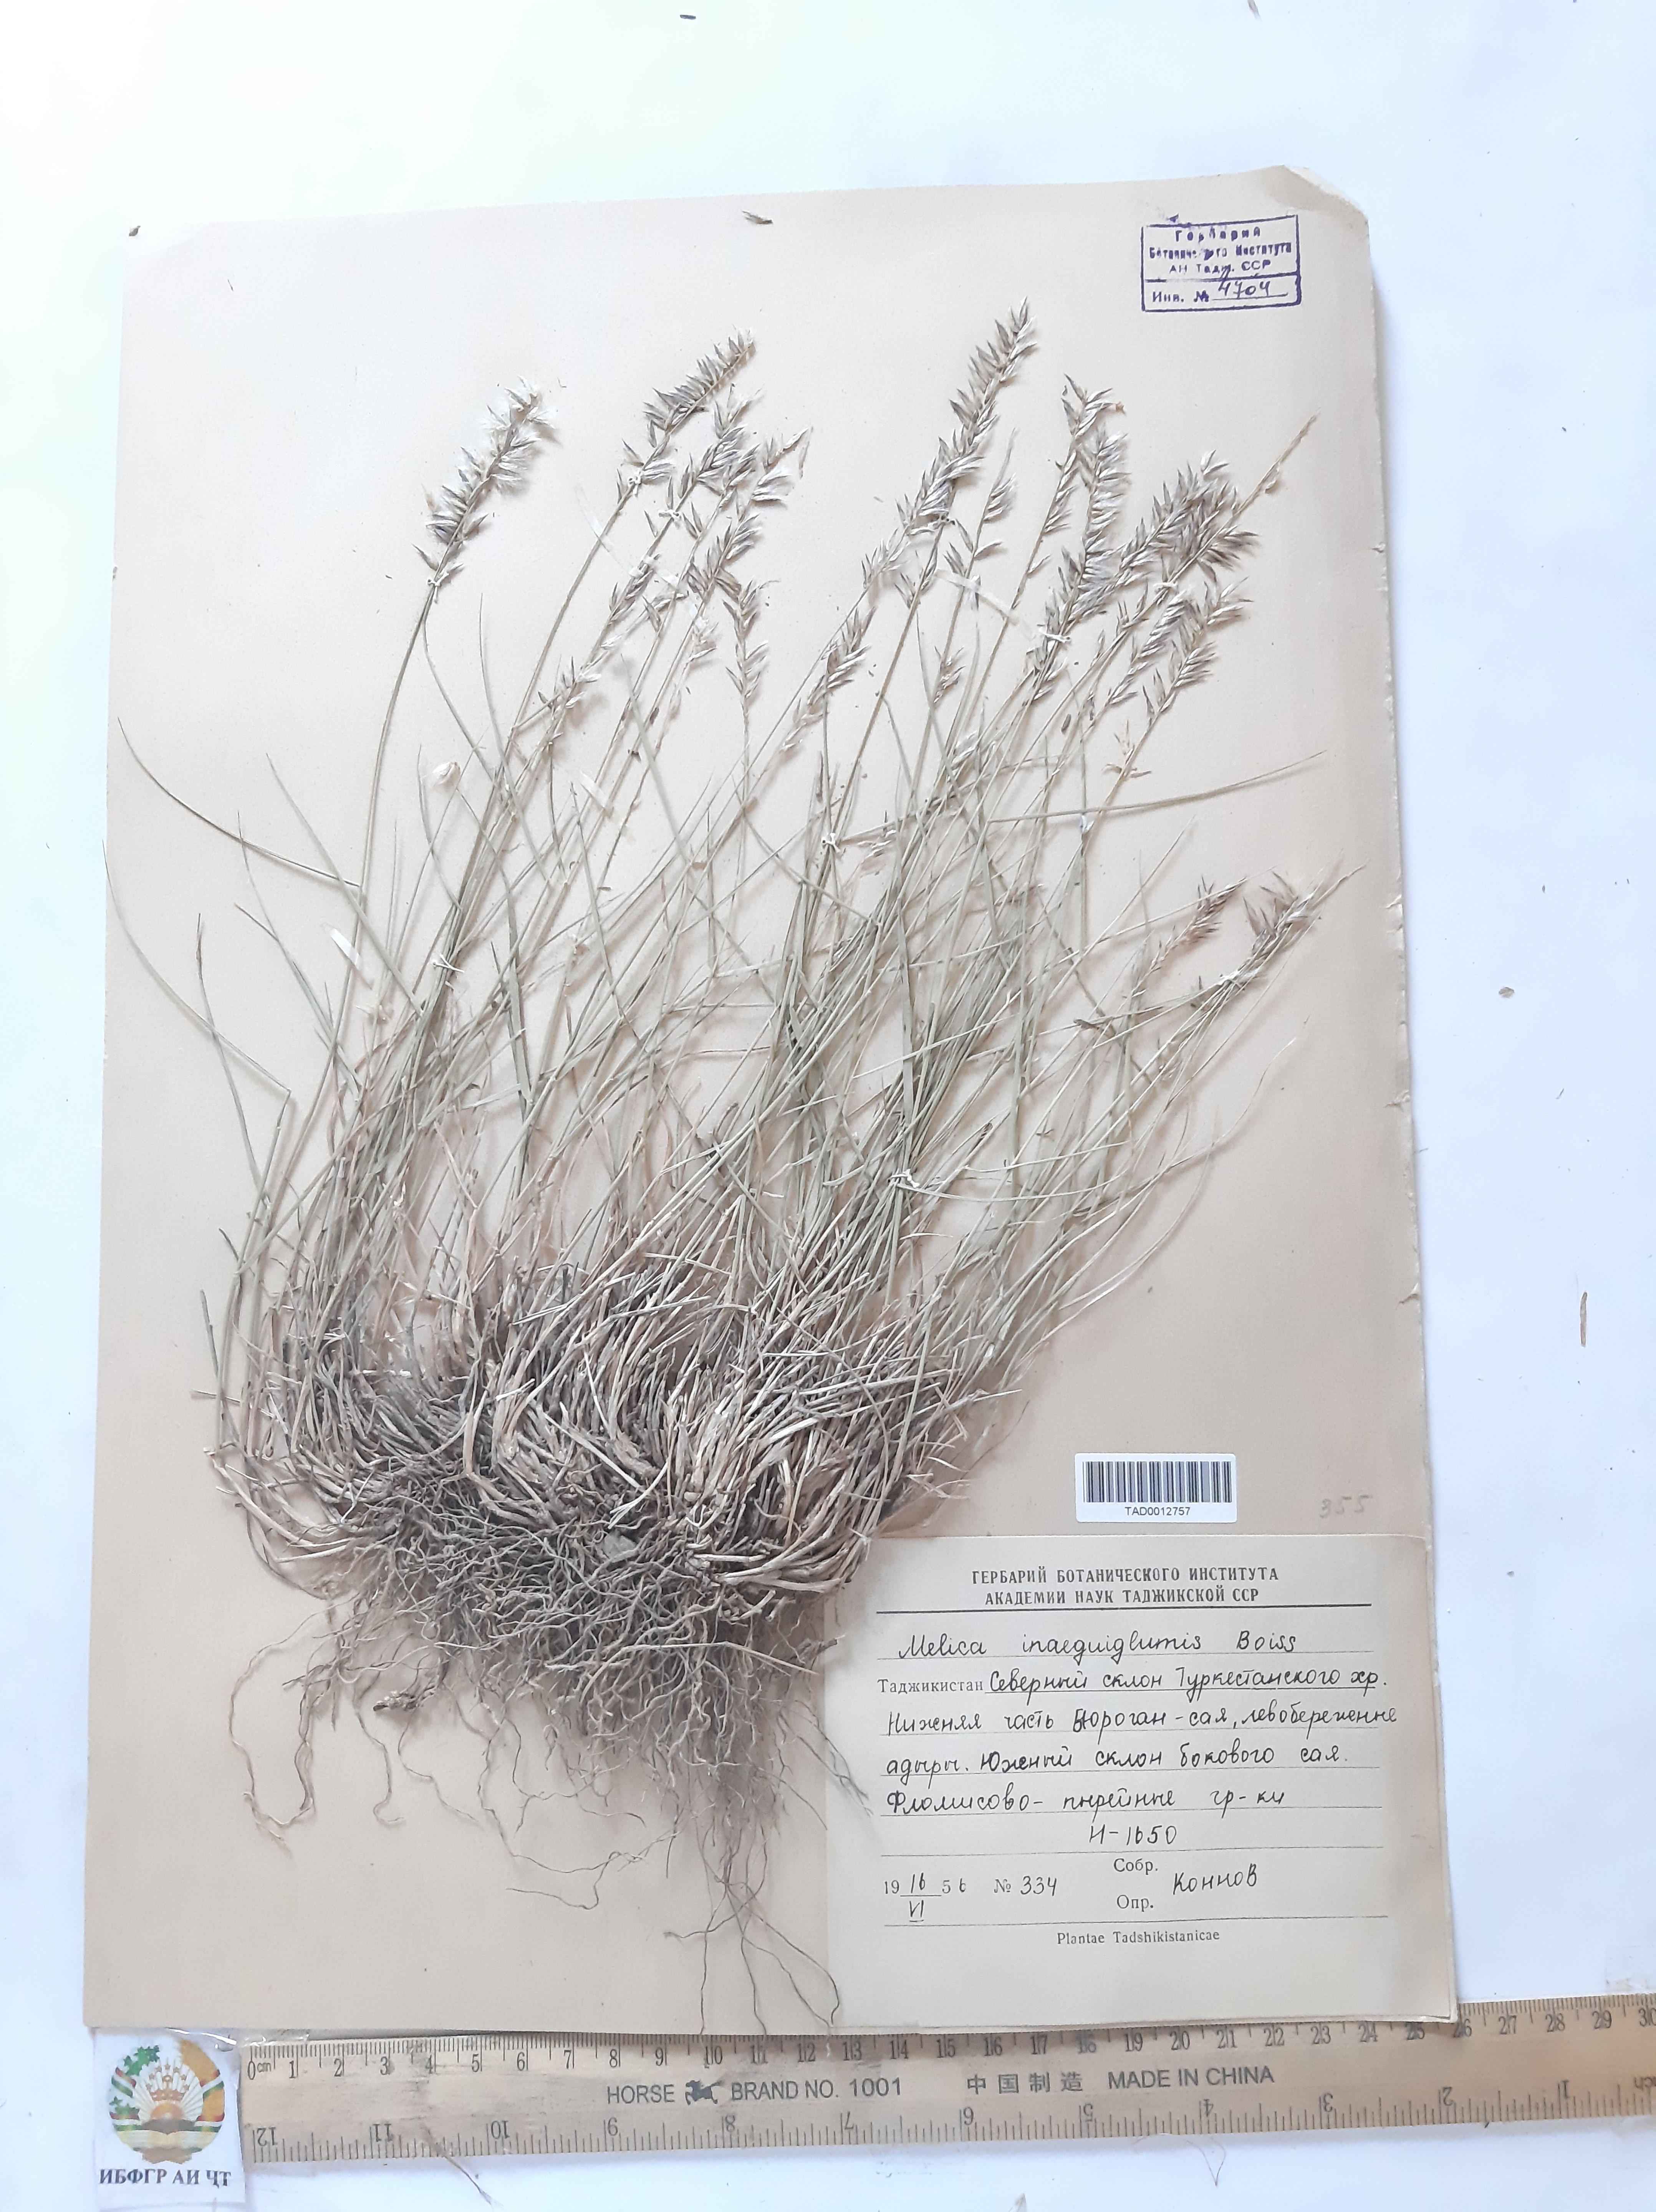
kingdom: Plantae
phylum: Tracheophyta
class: Liliopsida
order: Poales
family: Poaceae
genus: Melica
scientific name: Melica persica
